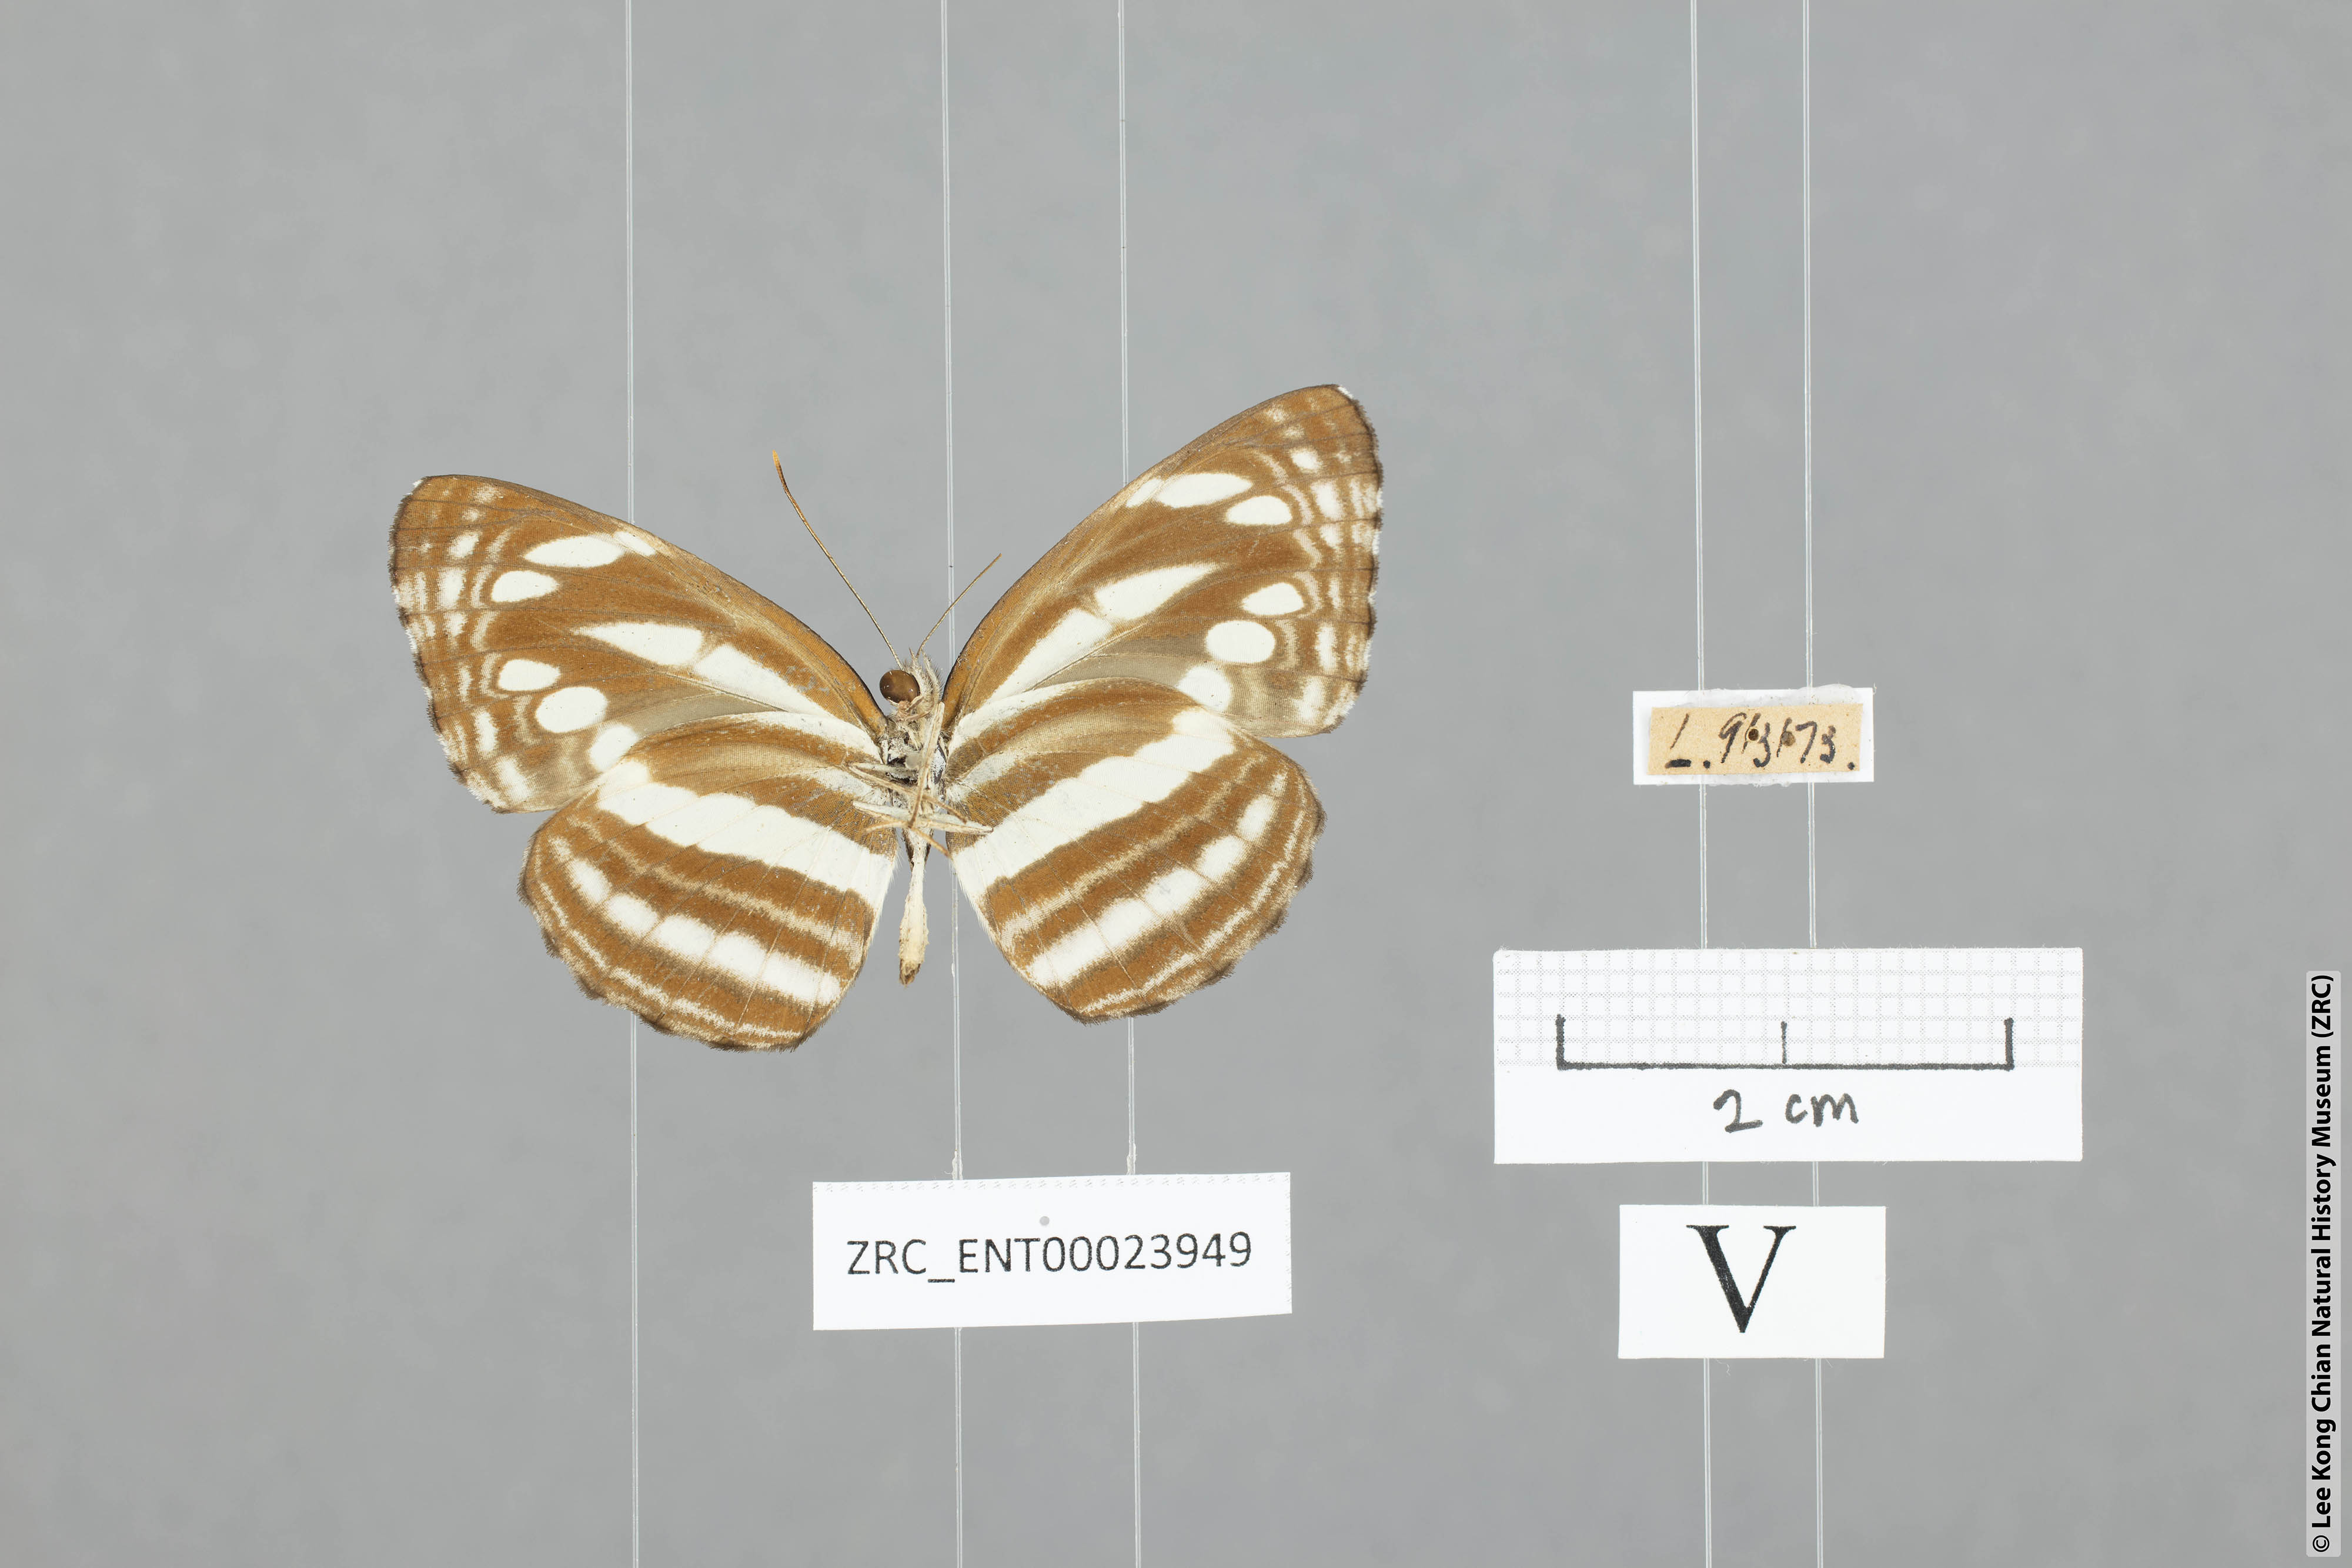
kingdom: Animalia
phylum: Arthropoda
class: Insecta
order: Lepidoptera
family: Nymphalidae
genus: Neptis
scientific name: Neptis clinia
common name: Southern sullied sailer
